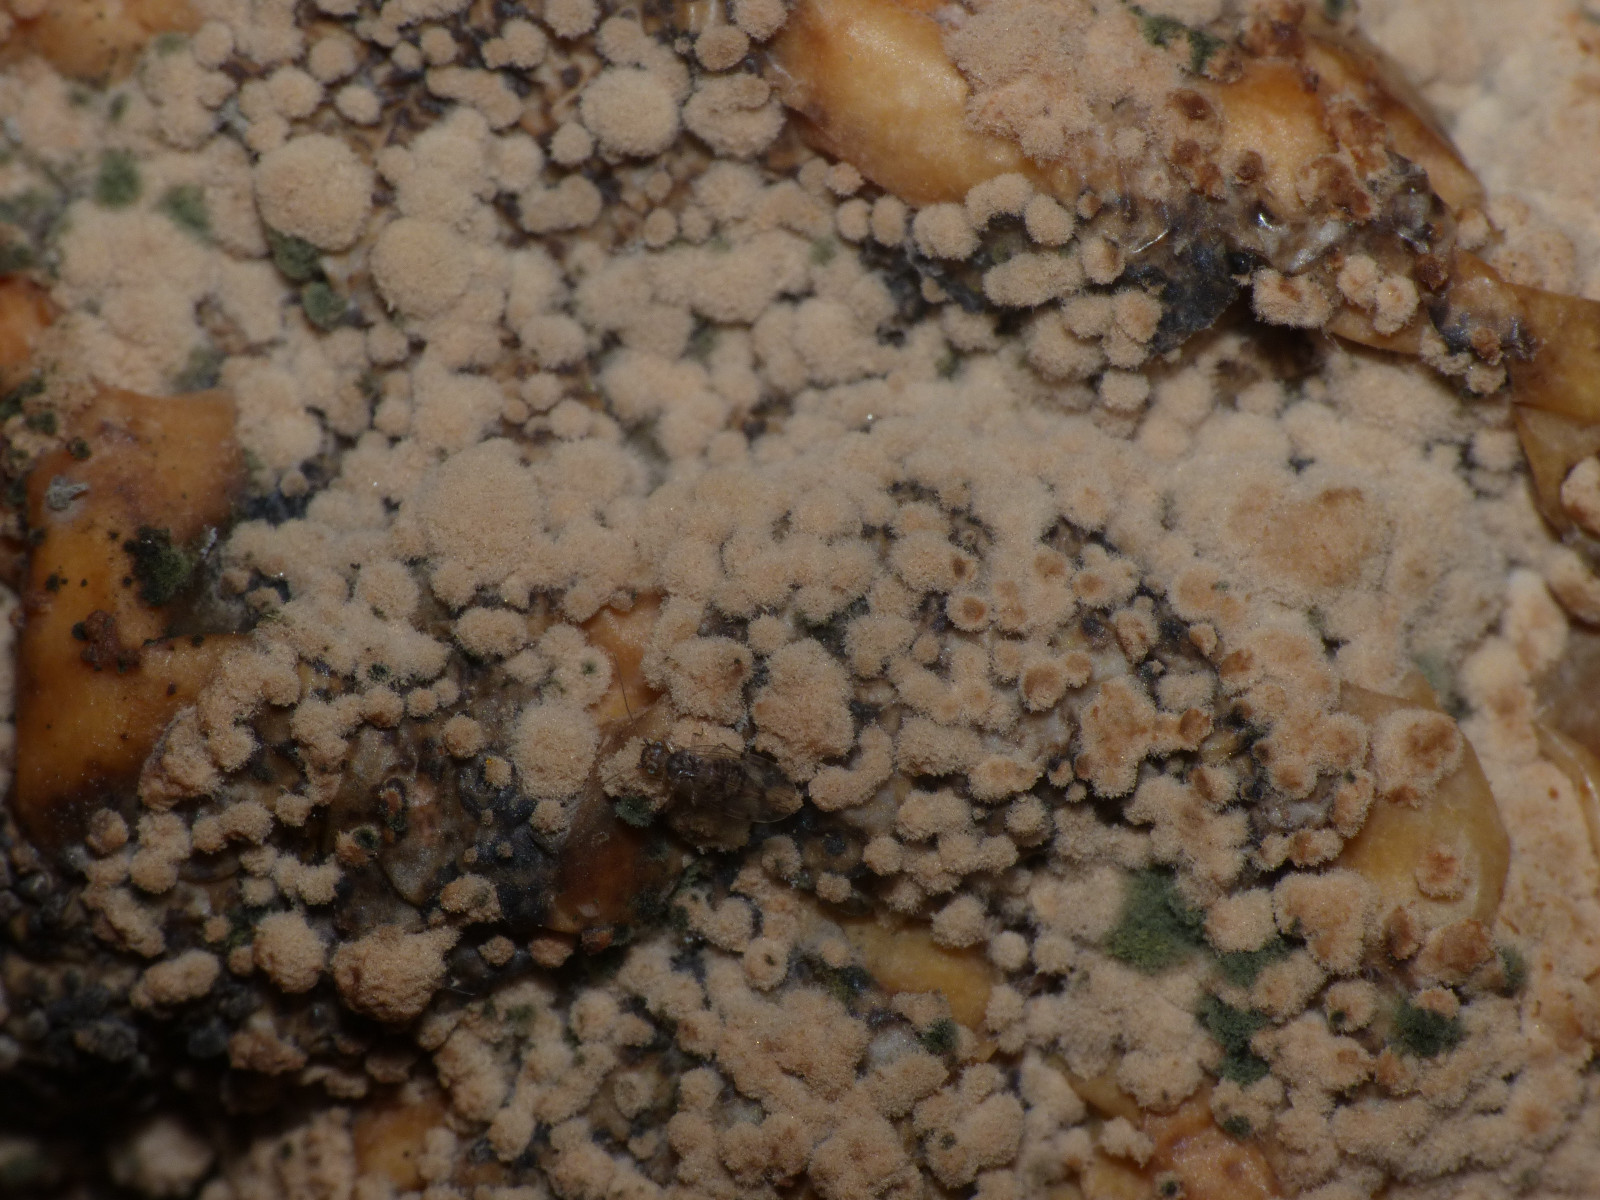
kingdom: Fungi
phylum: Ascomycota
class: Leotiomycetes
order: Helotiales
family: Sclerotiniaceae
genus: Monilinia
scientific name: Monilinia fructigena
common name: æble-knoldskive
